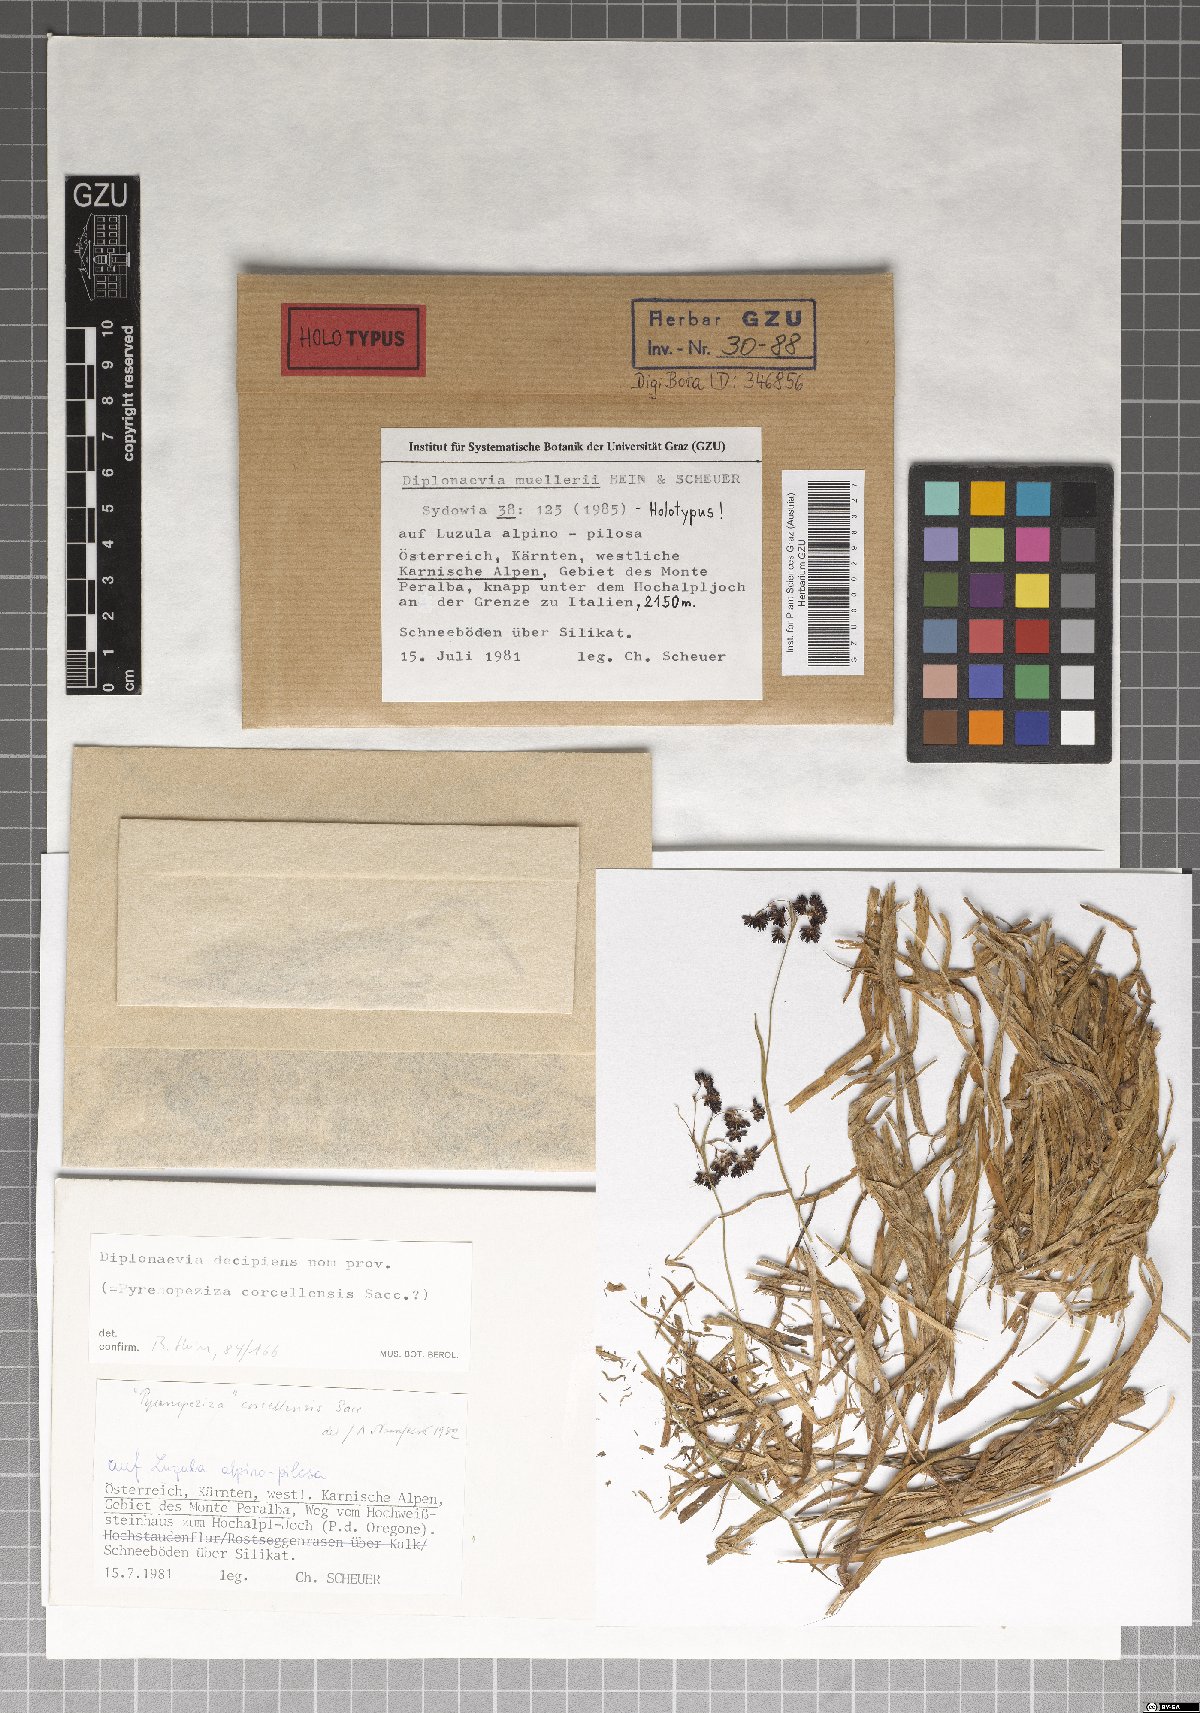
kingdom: Fungi
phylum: Ascomycota
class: Leotiomycetes
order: Helotiales
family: Calloriaceae
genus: Diplonaevia
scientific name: Diplonaevia muelleri
